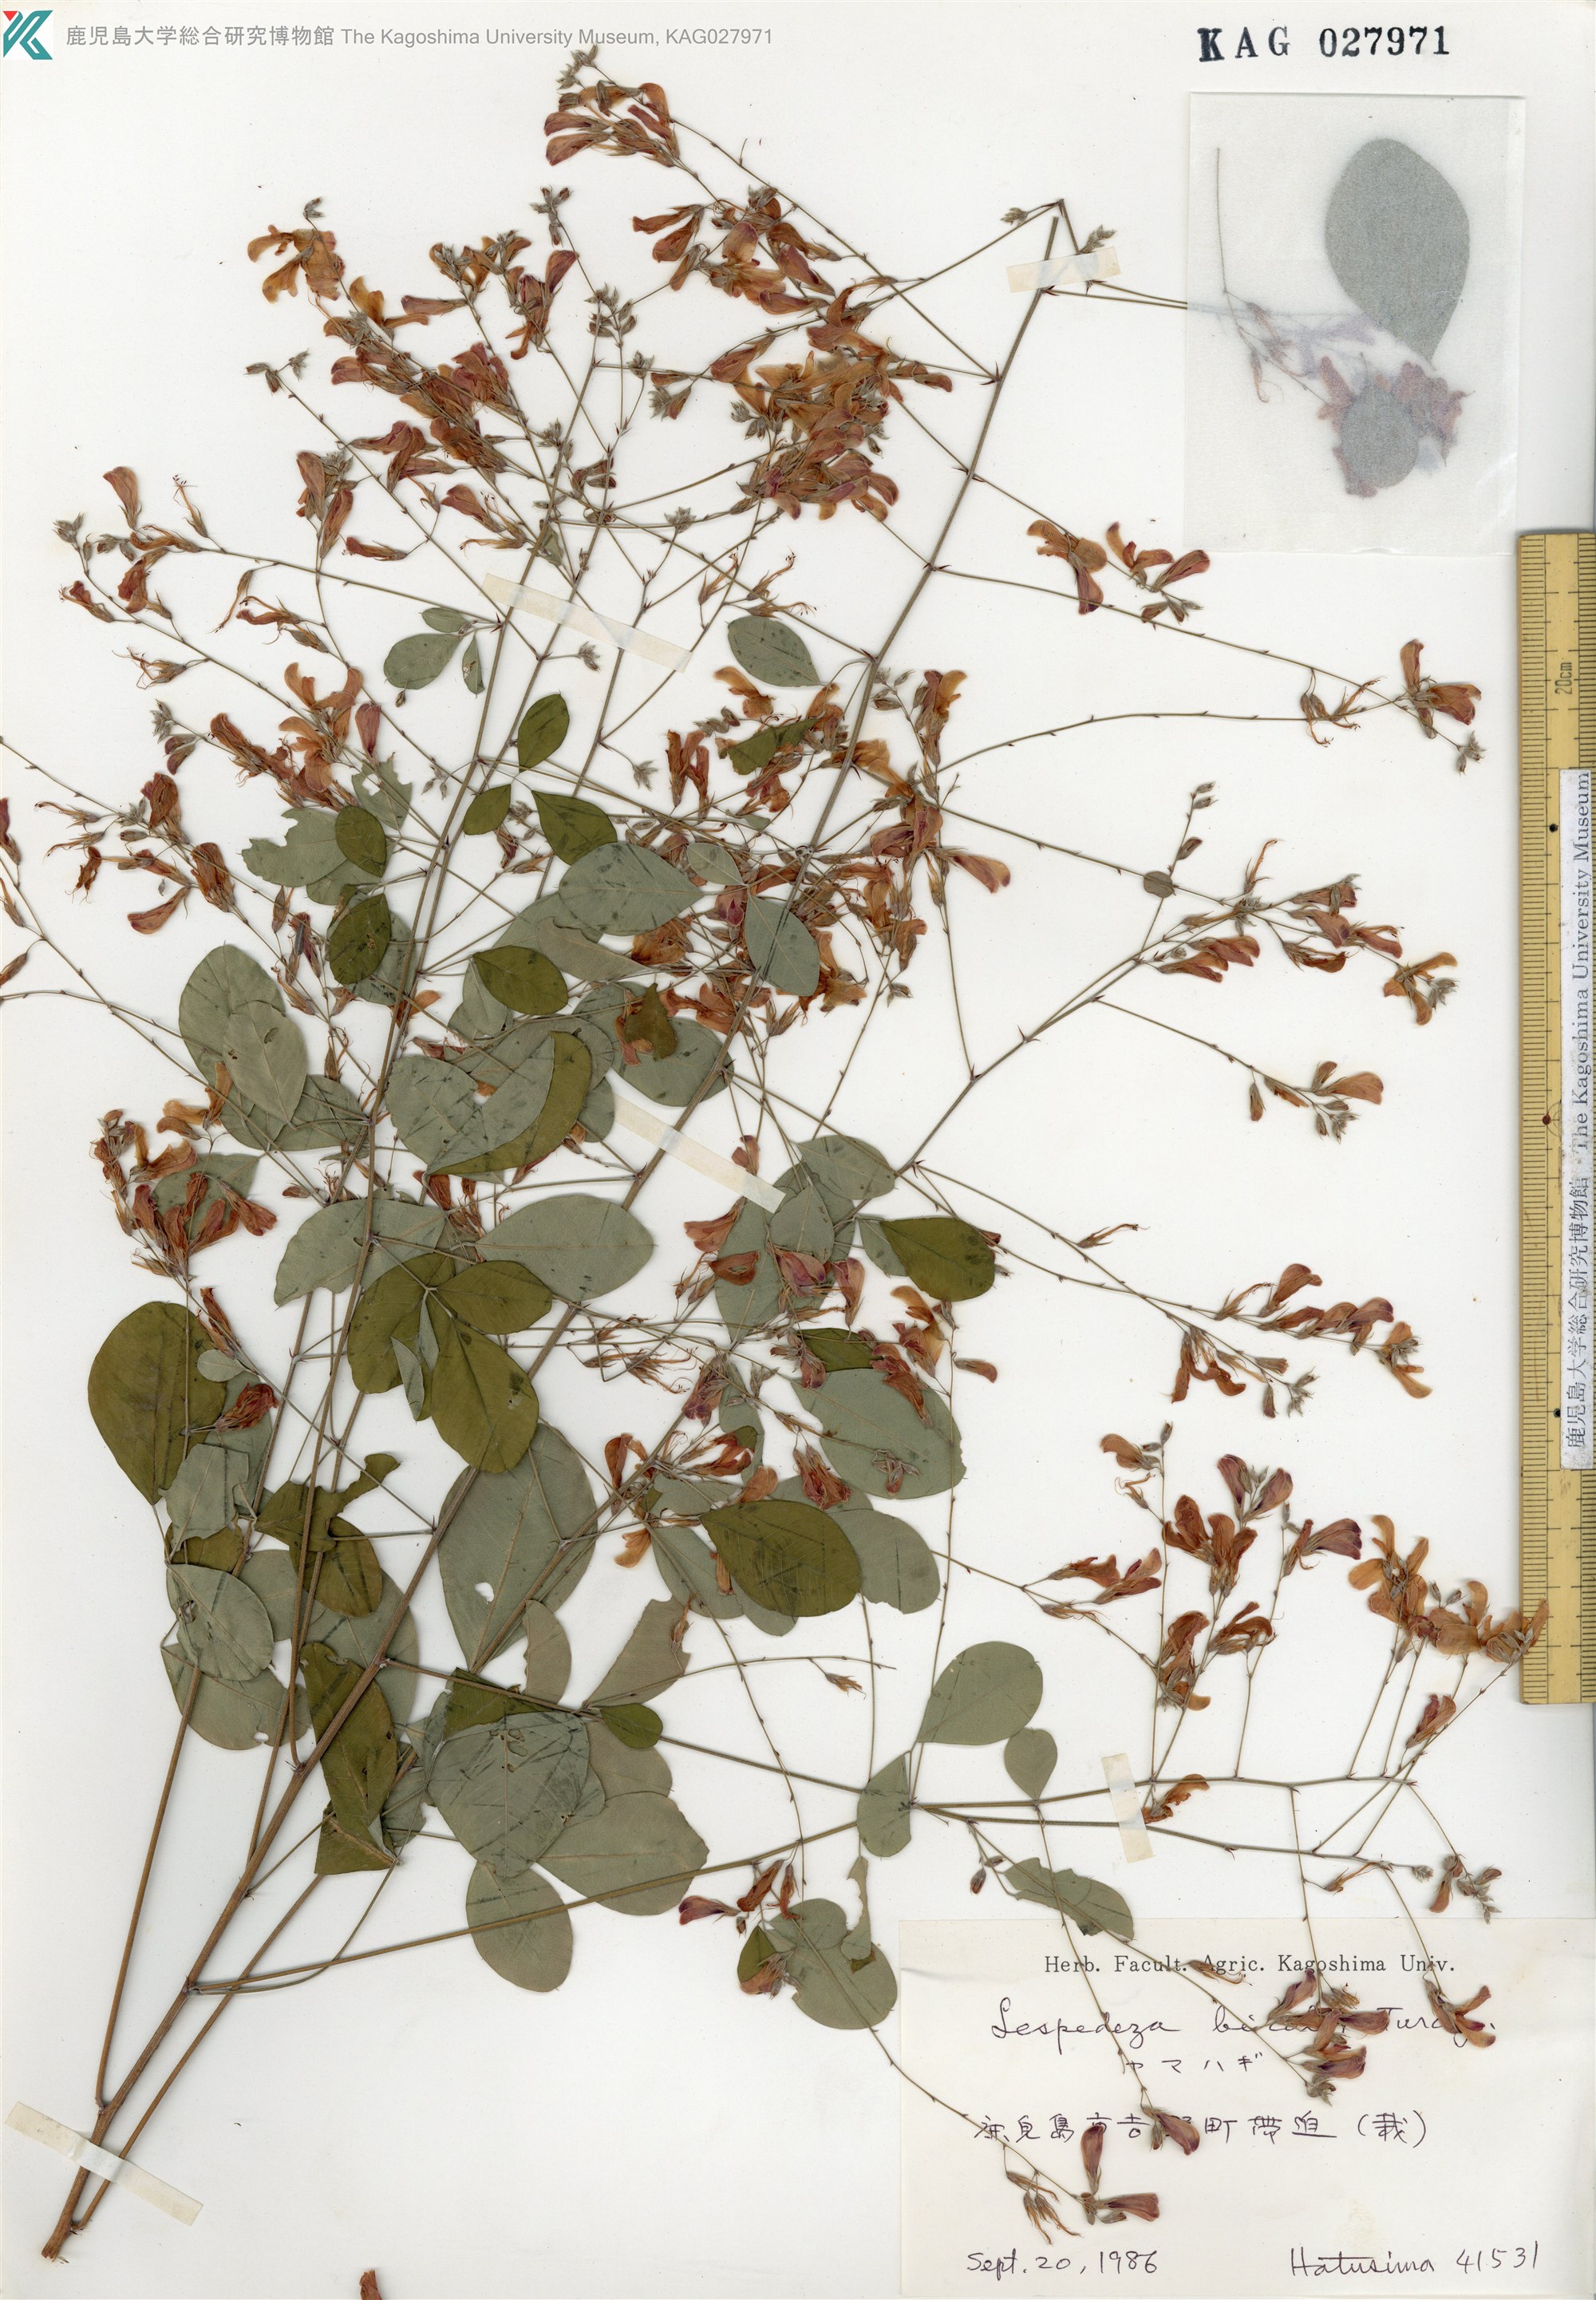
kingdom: Plantae
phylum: Tracheophyta
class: Magnoliopsida
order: Fabales
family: Fabaceae
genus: Lespedeza
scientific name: Lespedeza bicolor
